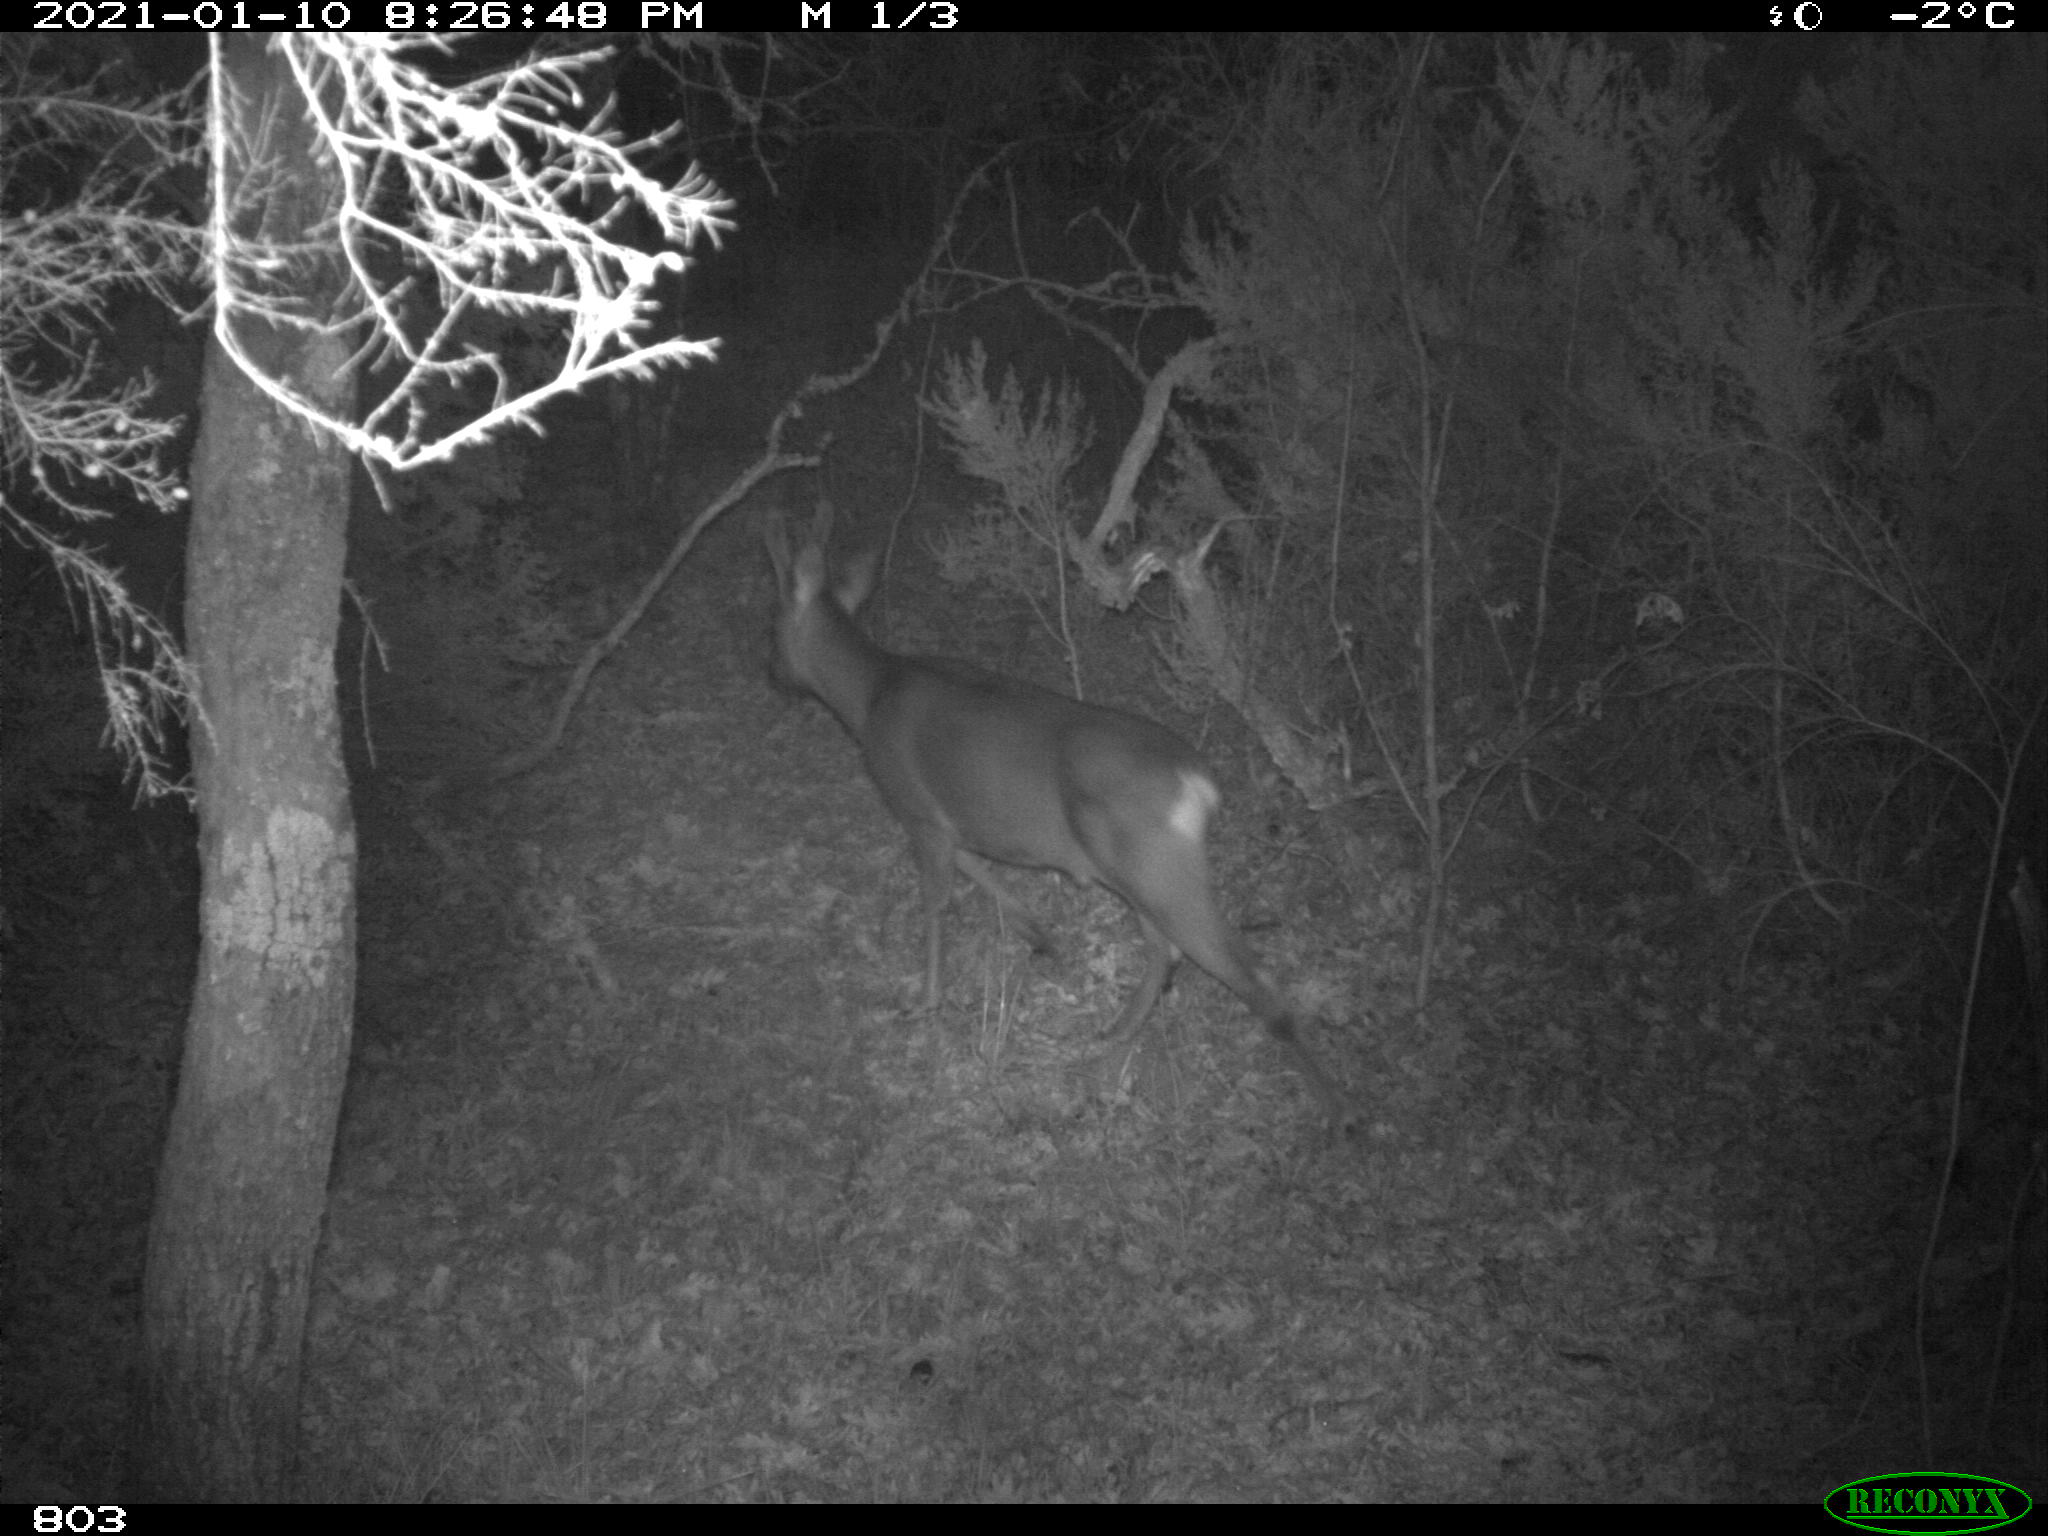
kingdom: Animalia
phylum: Chordata
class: Mammalia
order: Artiodactyla
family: Cervidae
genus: Capreolus
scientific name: Capreolus capreolus
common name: Western roe deer
